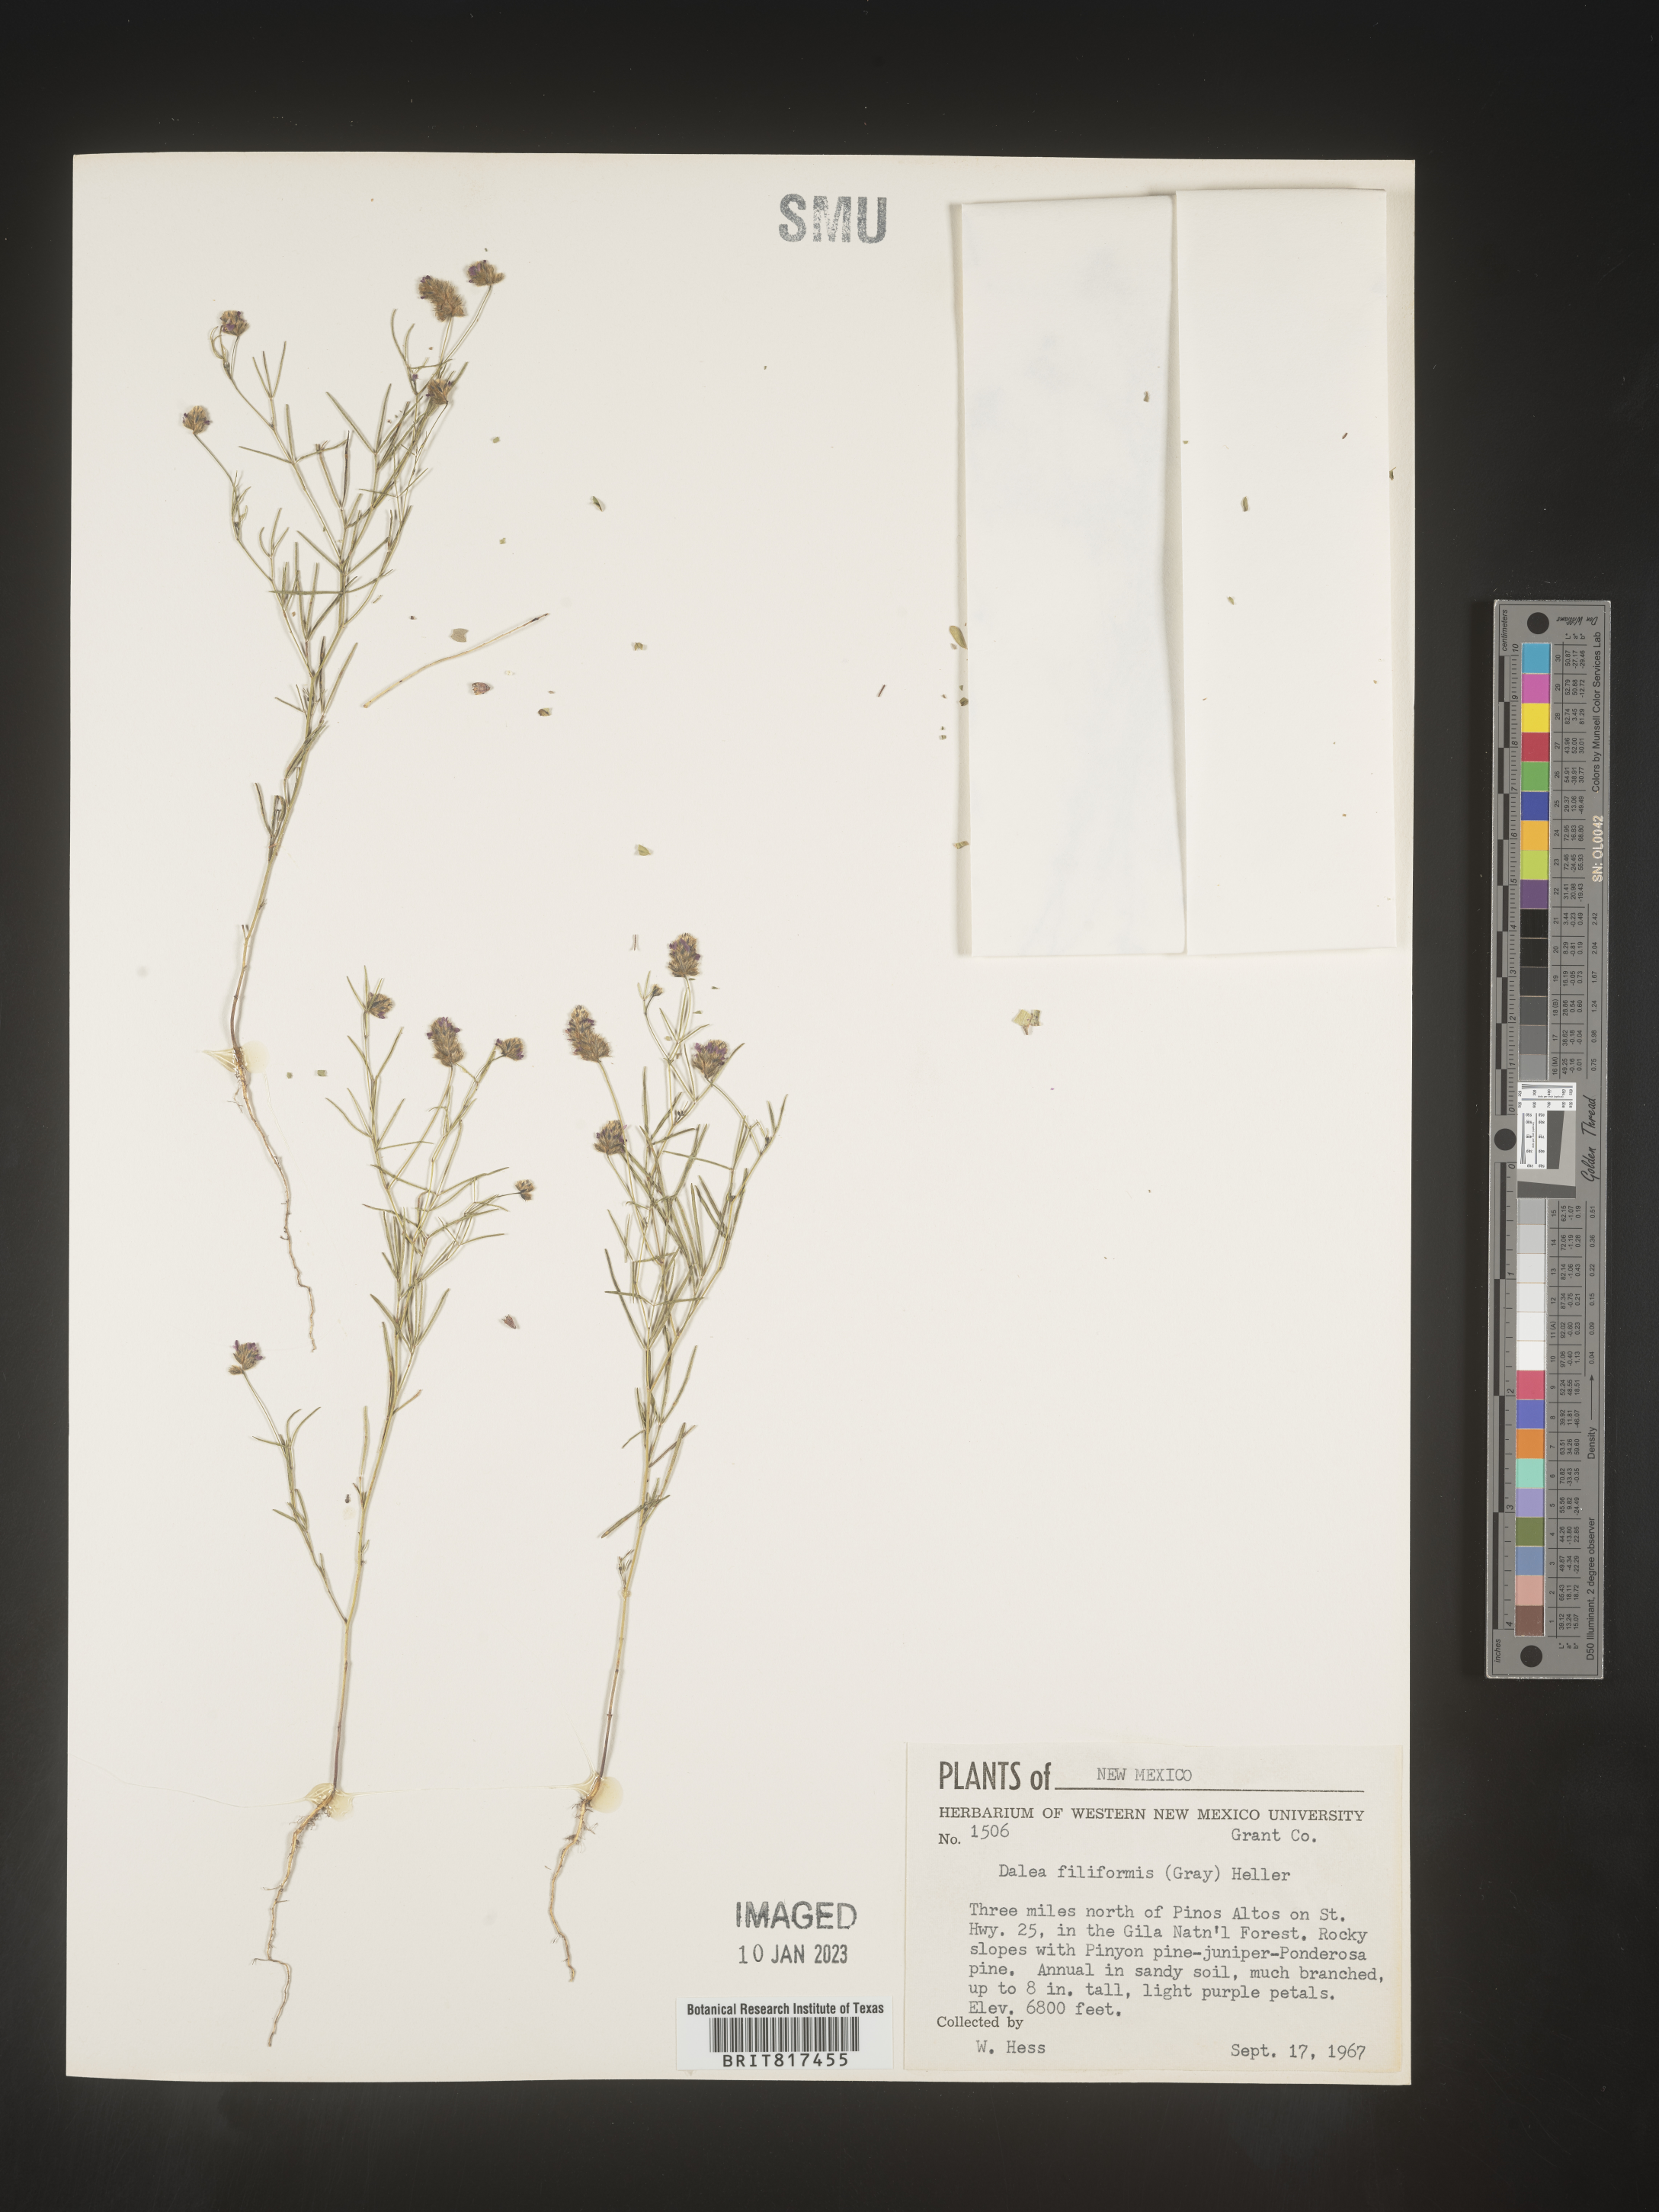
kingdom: Plantae
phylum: Tracheophyta
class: Magnoliopsida
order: Fabales
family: Fabaceae
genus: Dalea
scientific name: Dalea
